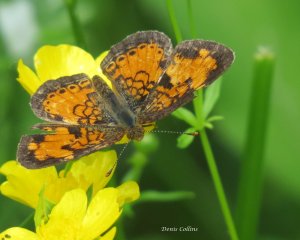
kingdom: Animalia
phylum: Arthropoda
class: Insecta
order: Lepidoptera
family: Nymphalidae
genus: Phyciodes
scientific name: Phyciodes tharos
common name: Northern Crescent
